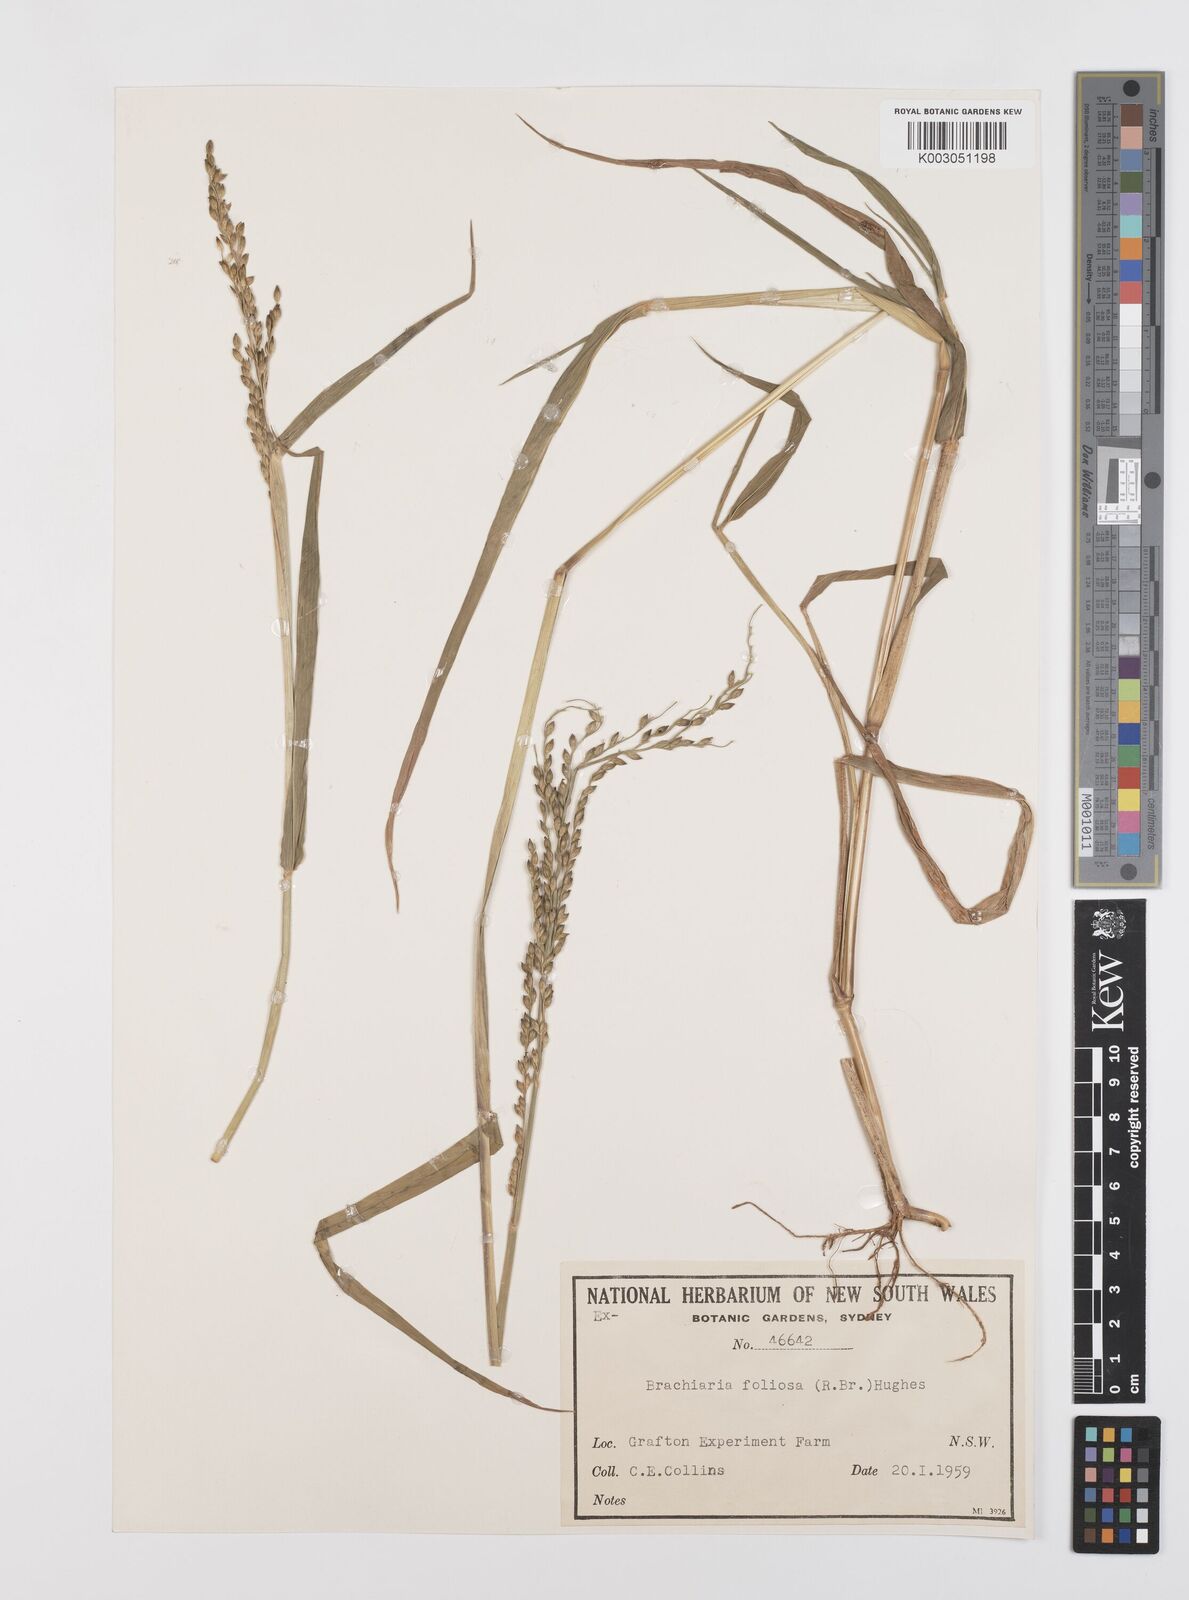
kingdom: Plantae
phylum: Tracheophyta
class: Liliopsida
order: Poales
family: Poaceae
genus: Urochloa
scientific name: Urochloa foliosa
